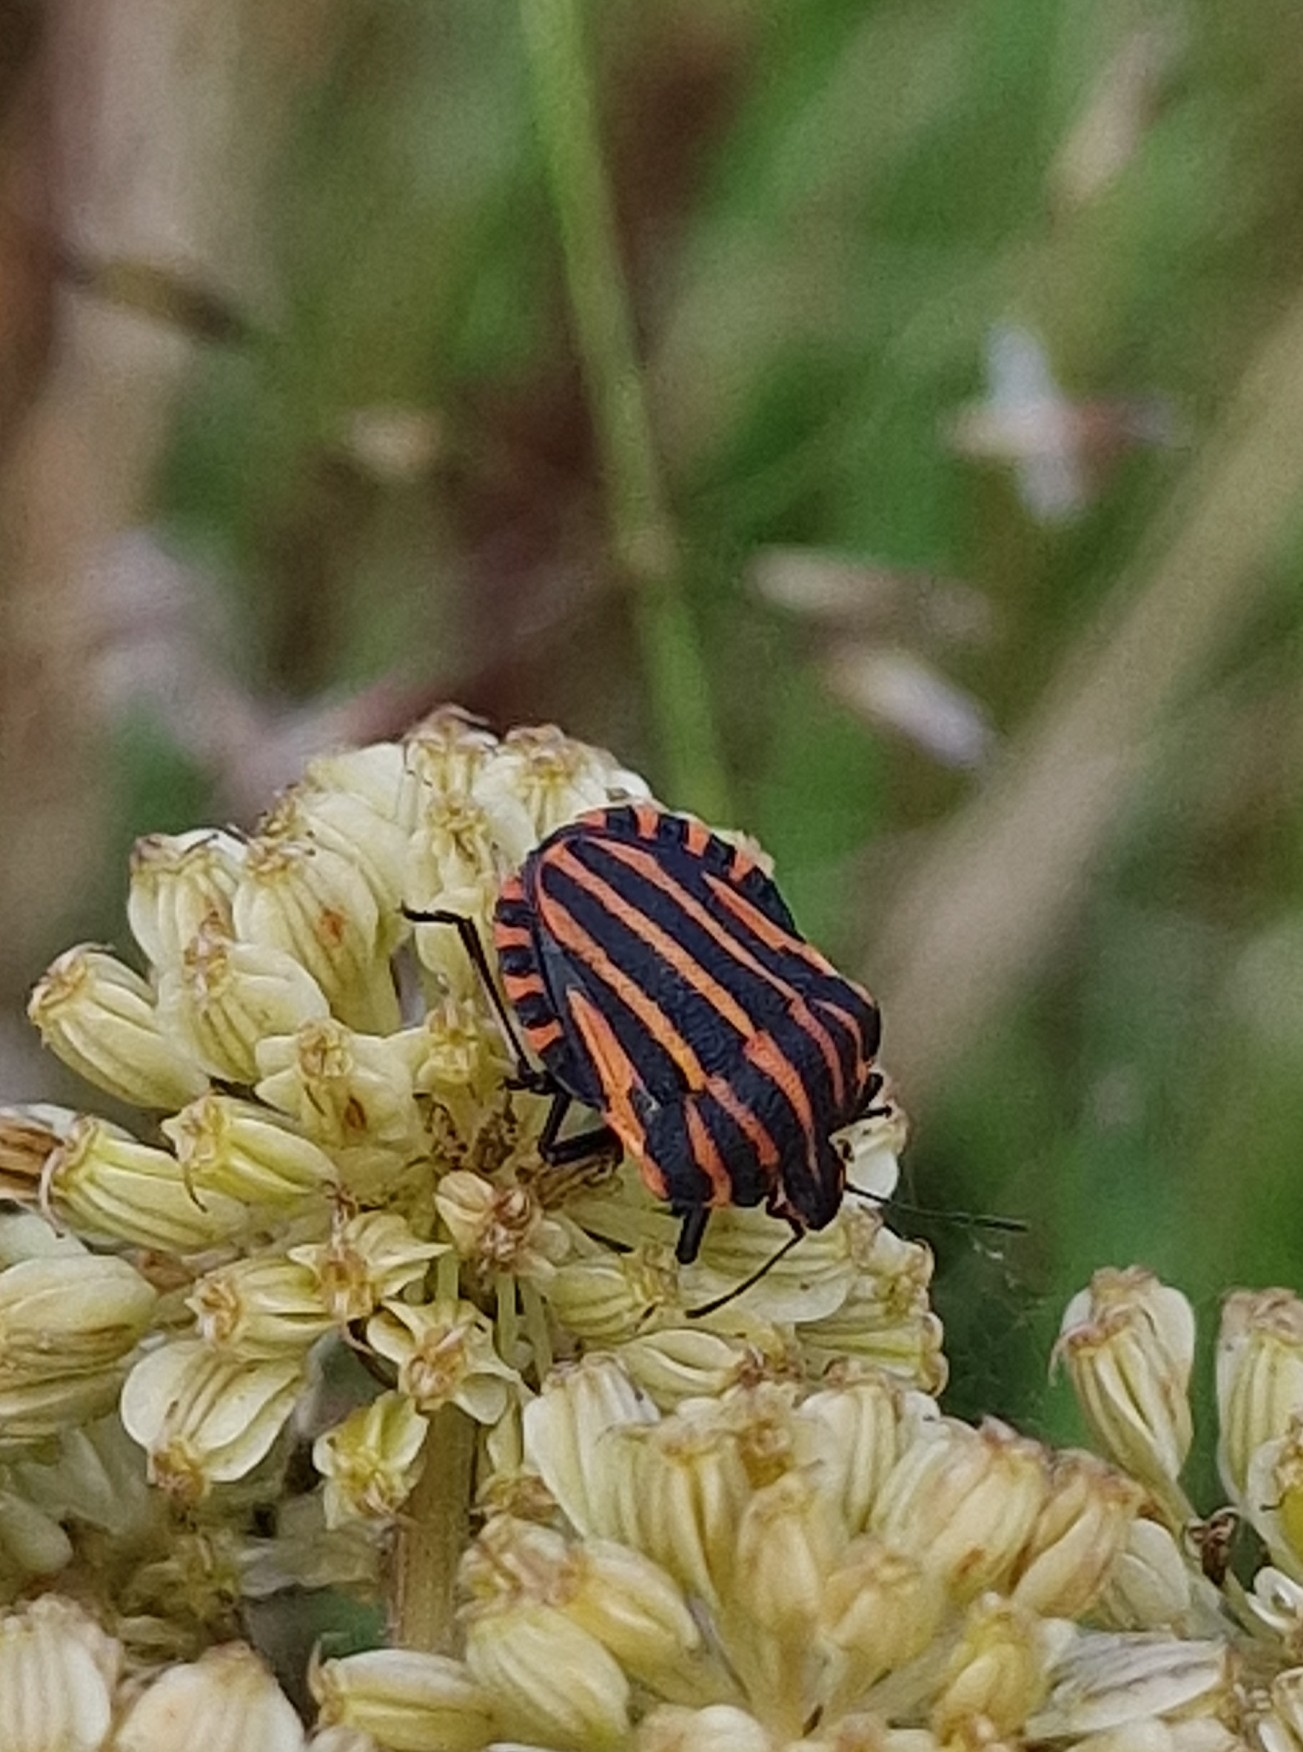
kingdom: Animalia
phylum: Arthropoda
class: Insecta
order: Hemiptera
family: Pentatomidae
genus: Graphosoma
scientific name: Graphosoma italicum
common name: Stribetæge
